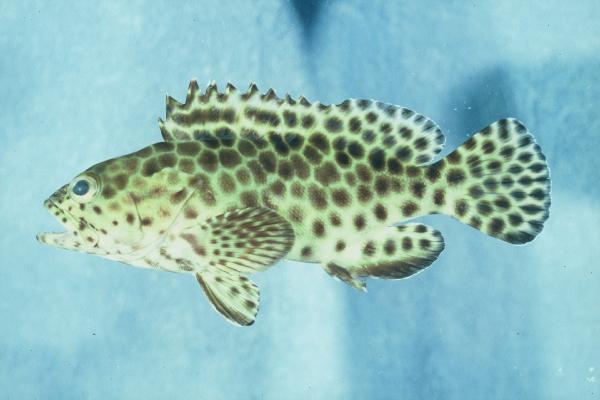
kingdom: Animalia
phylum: Chordata
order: Perciformes
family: Serranidae
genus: Epinephelus
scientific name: Epinephelus quoyanus
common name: Longfin grouper
